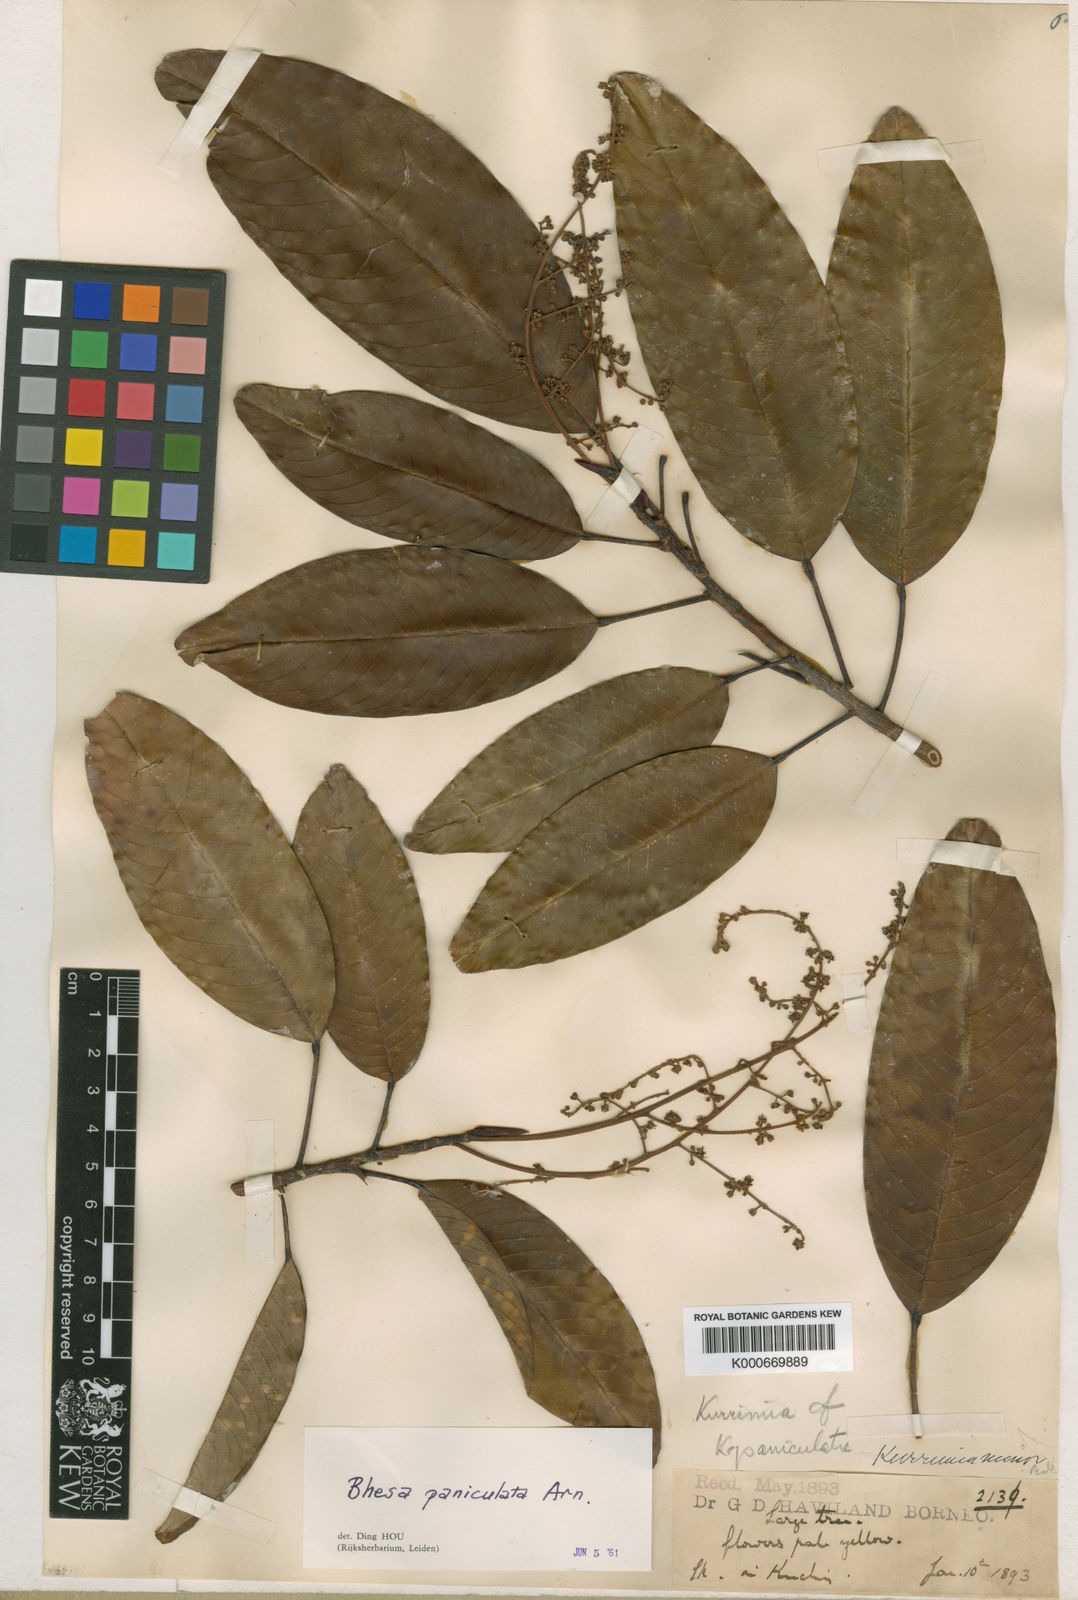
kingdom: Plantae
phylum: Tracheophyta
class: Magnoliopsida
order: Malpighiales
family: Centroplacaceae
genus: Bhesa
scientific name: Bhesa paniculata
